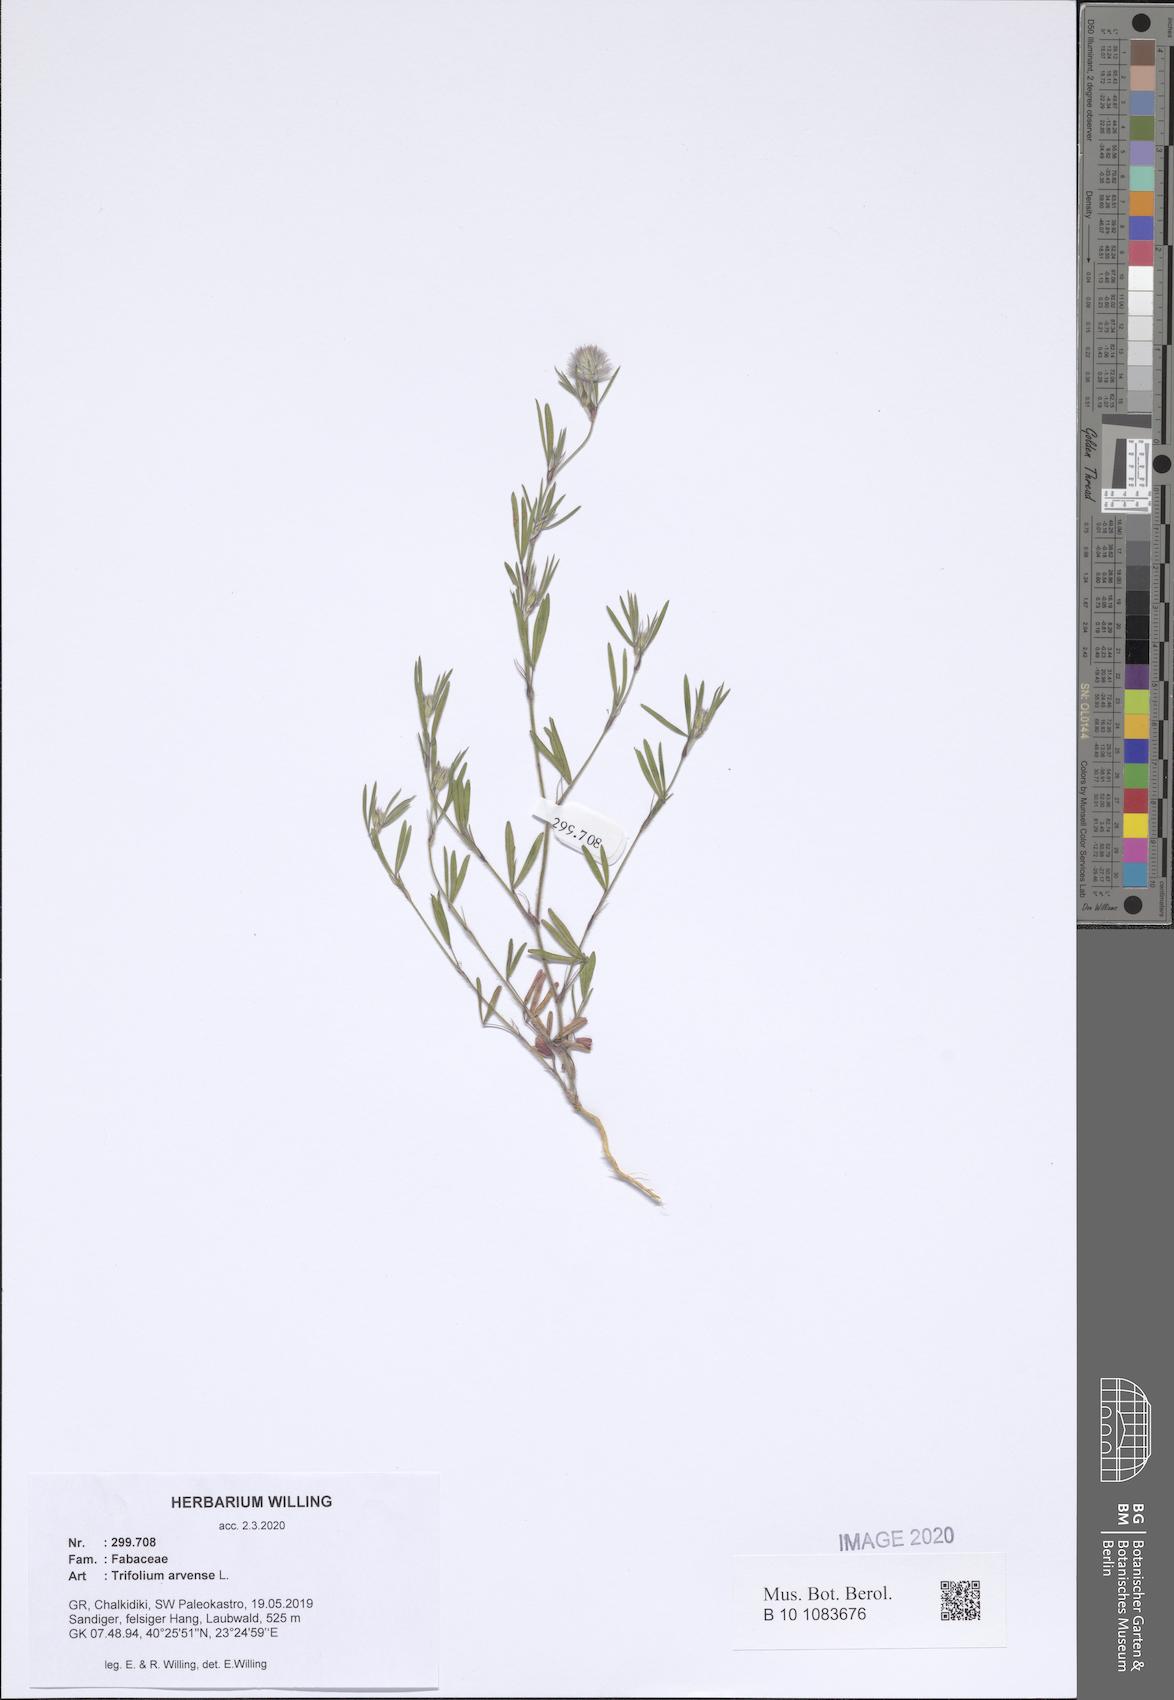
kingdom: Plantae
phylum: Tracheophyta
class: Magnoliopsida
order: Fabales
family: Fabaceae
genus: Trifolium
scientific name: Trifolium arvense
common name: Hare's-foot clover
